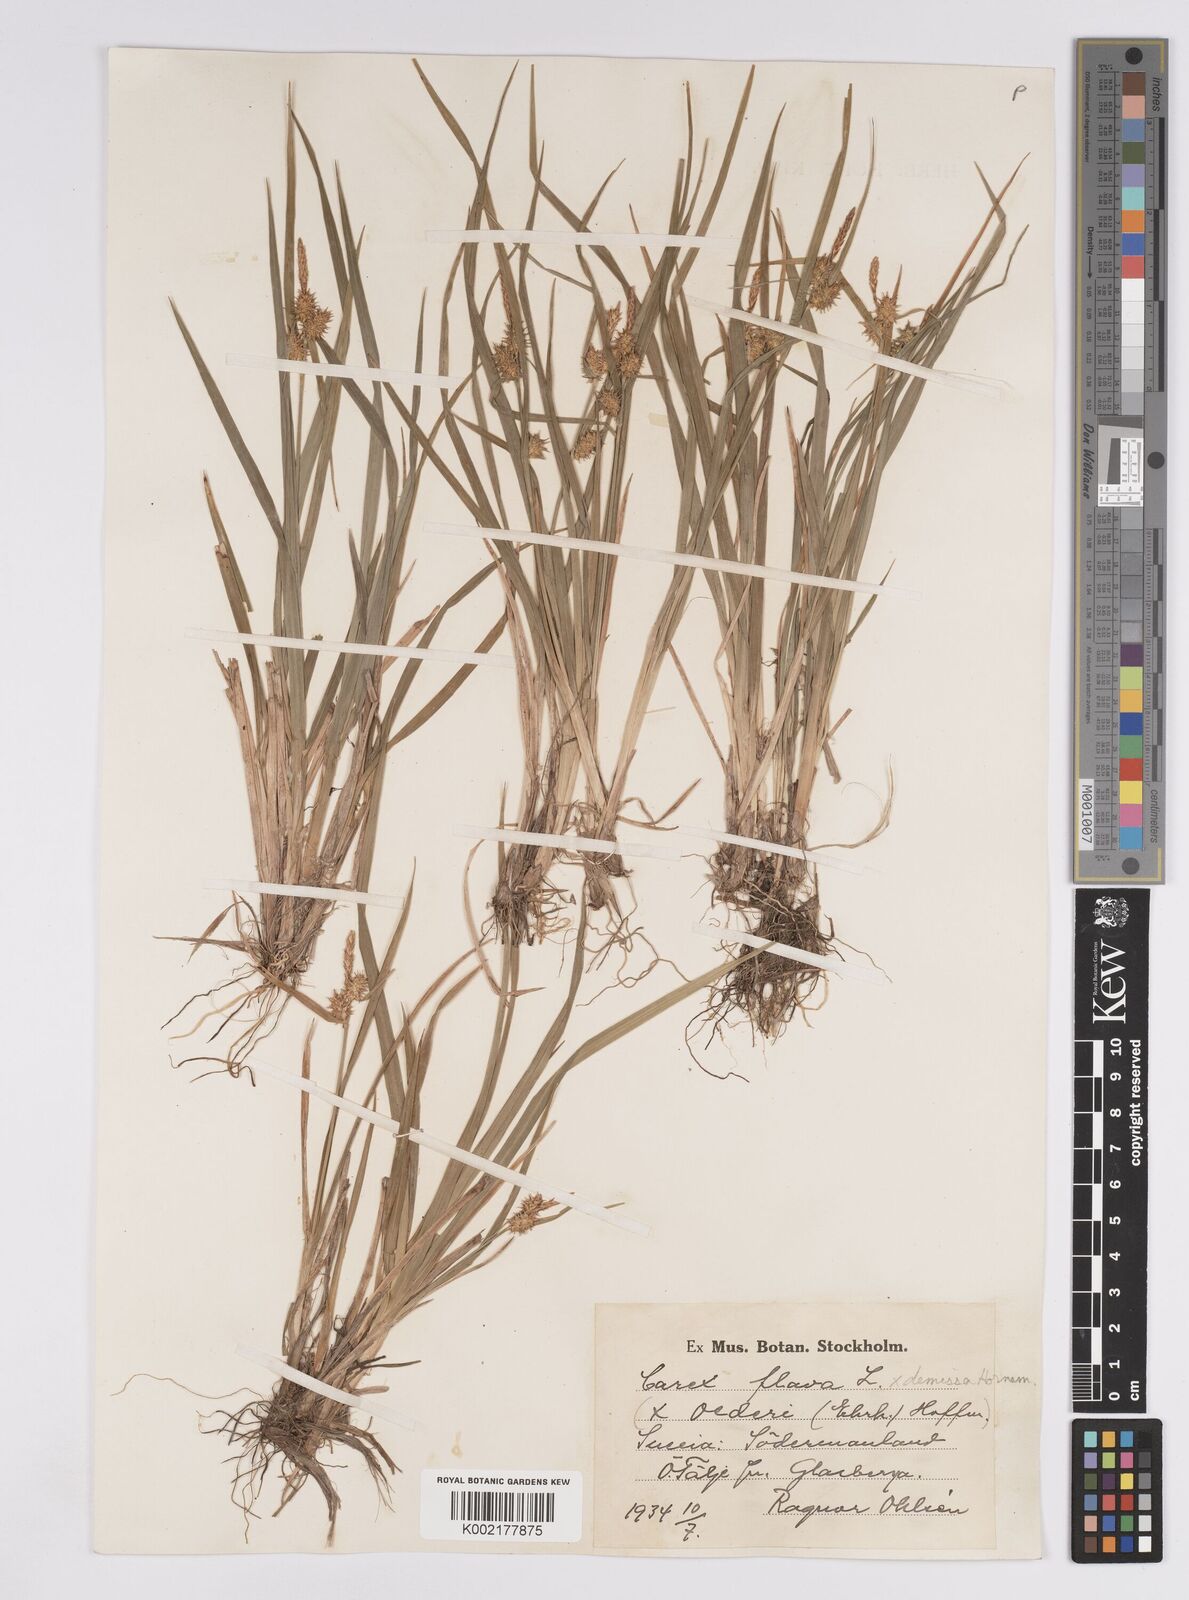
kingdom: Plantae
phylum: Tracheophyta
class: Liliopsida
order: Poales
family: Cyperaceae
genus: Carex
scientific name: Carex flava
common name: Large yellow-sedge
